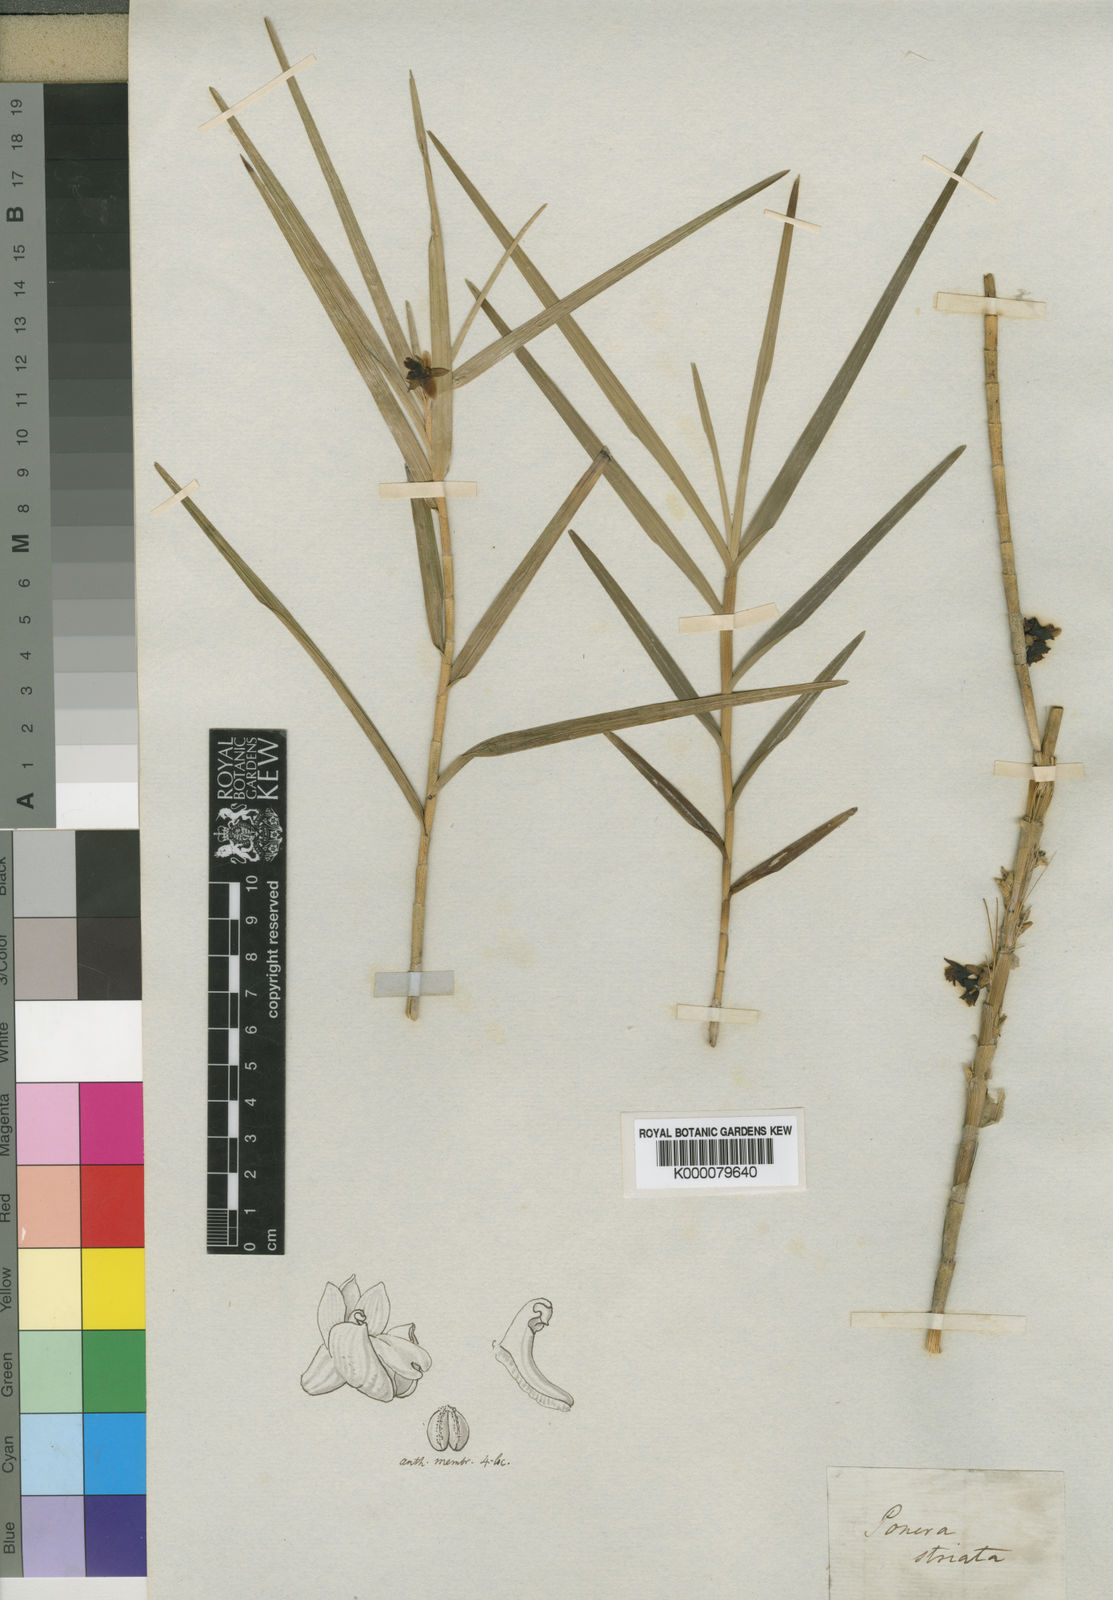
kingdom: Plantae
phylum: Tracheophyta
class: Liliopsida
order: Asparagales
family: Orchidaceae
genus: Nemaconia
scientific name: Nemaconia striata
